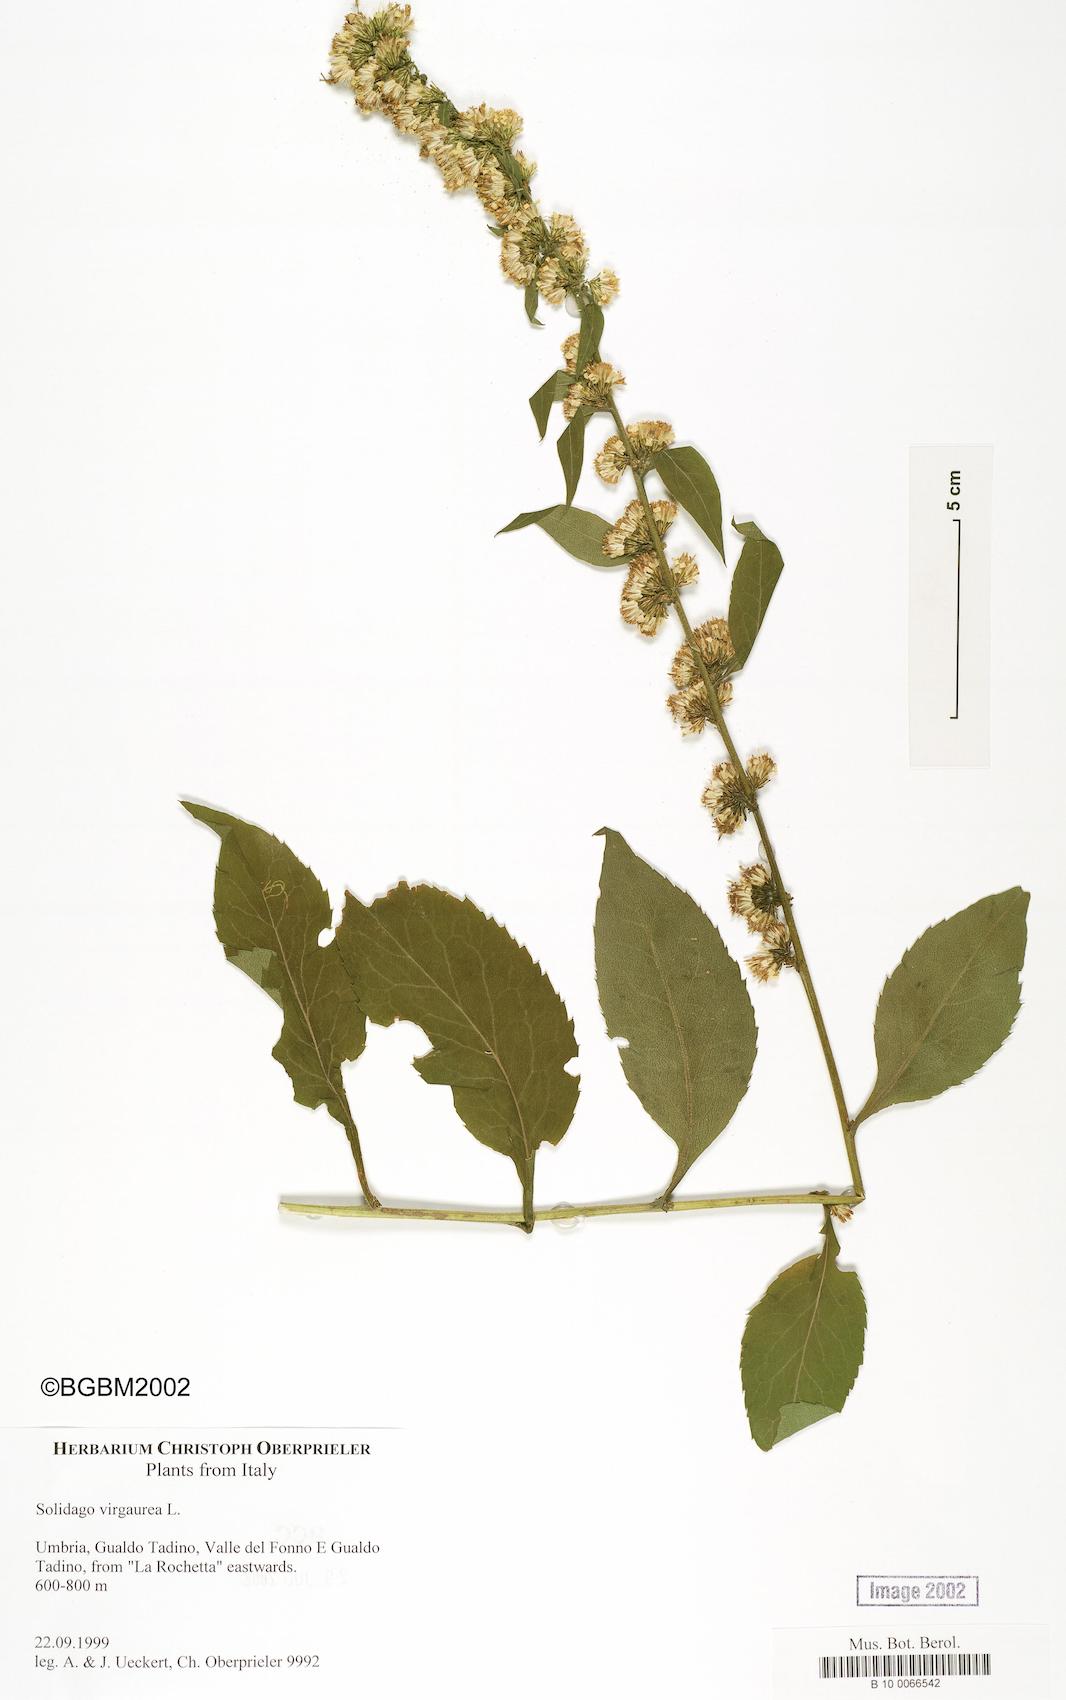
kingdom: Plantae
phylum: Tracheophyta
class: Magnoliopsida
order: Asterales
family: Asteraceae
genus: Solidago
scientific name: Solidago virgaurea
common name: Goldenrod
